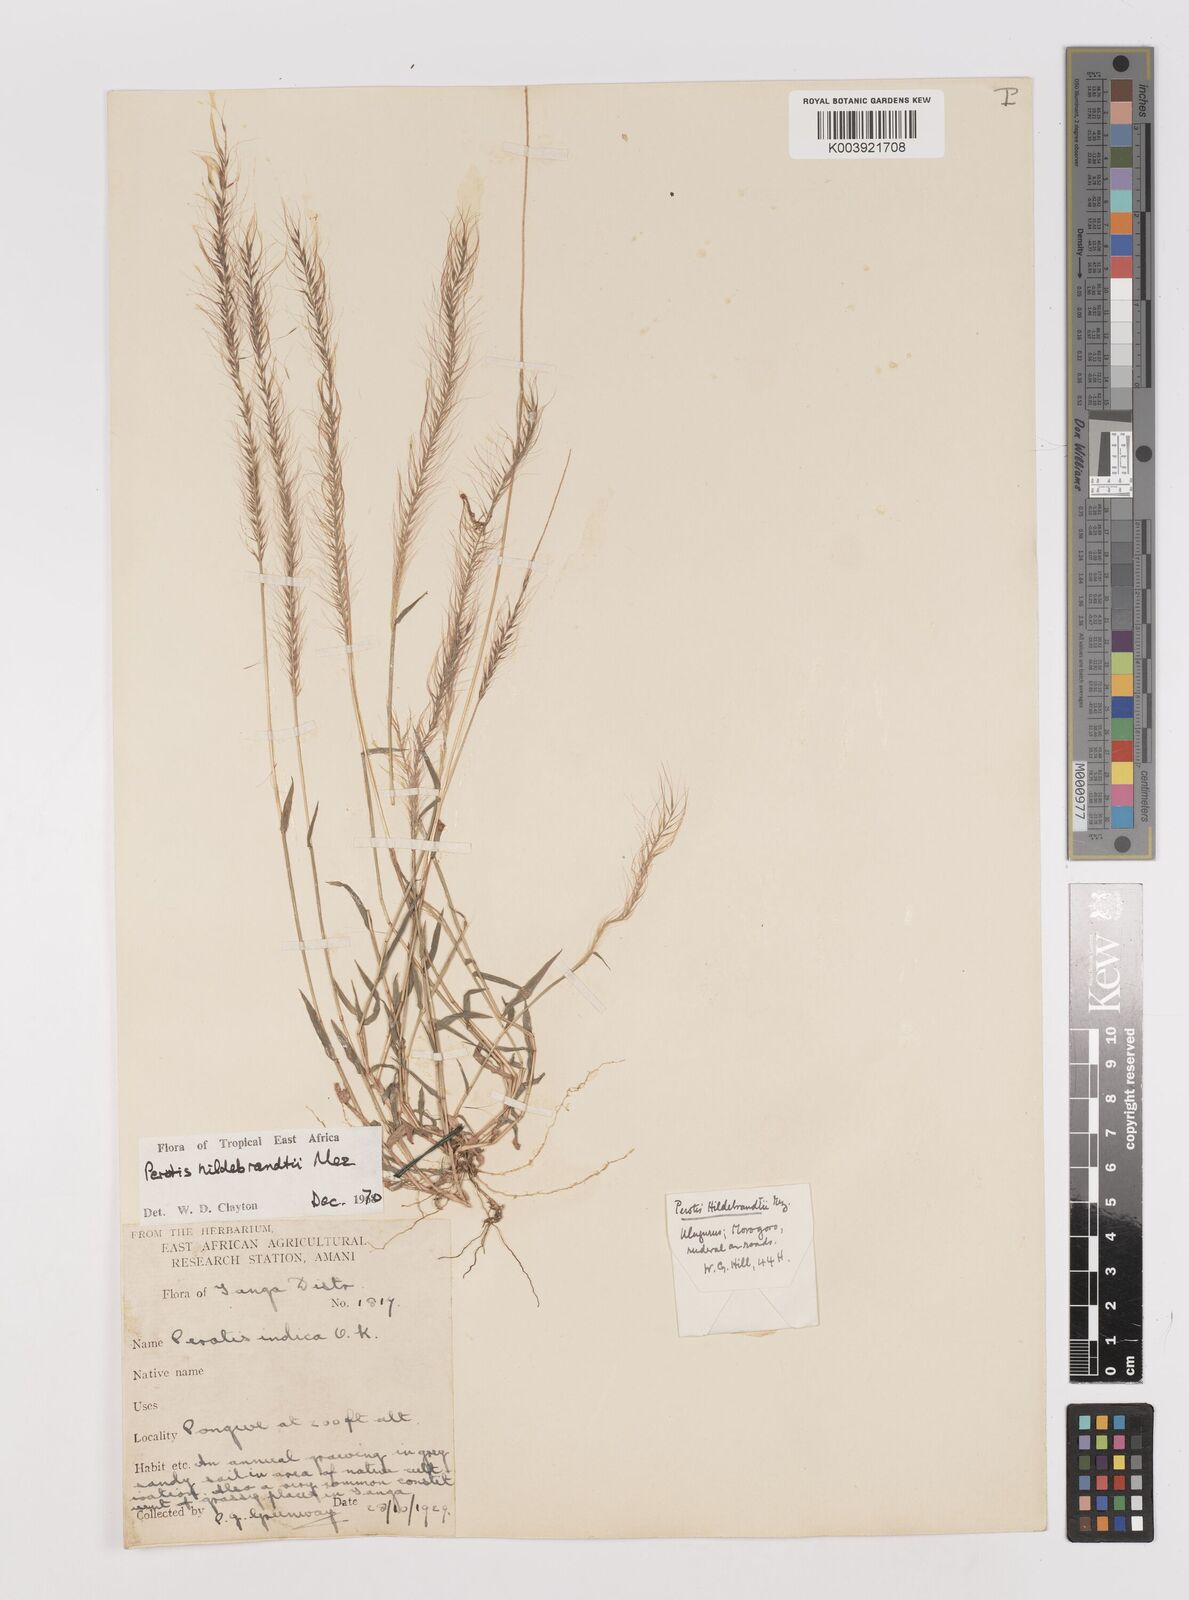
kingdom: Plantae
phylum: Tracheophyta
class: Liliopsida
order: Poales
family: Poaceae
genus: Perotis
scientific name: Perotis hildebrandtii
